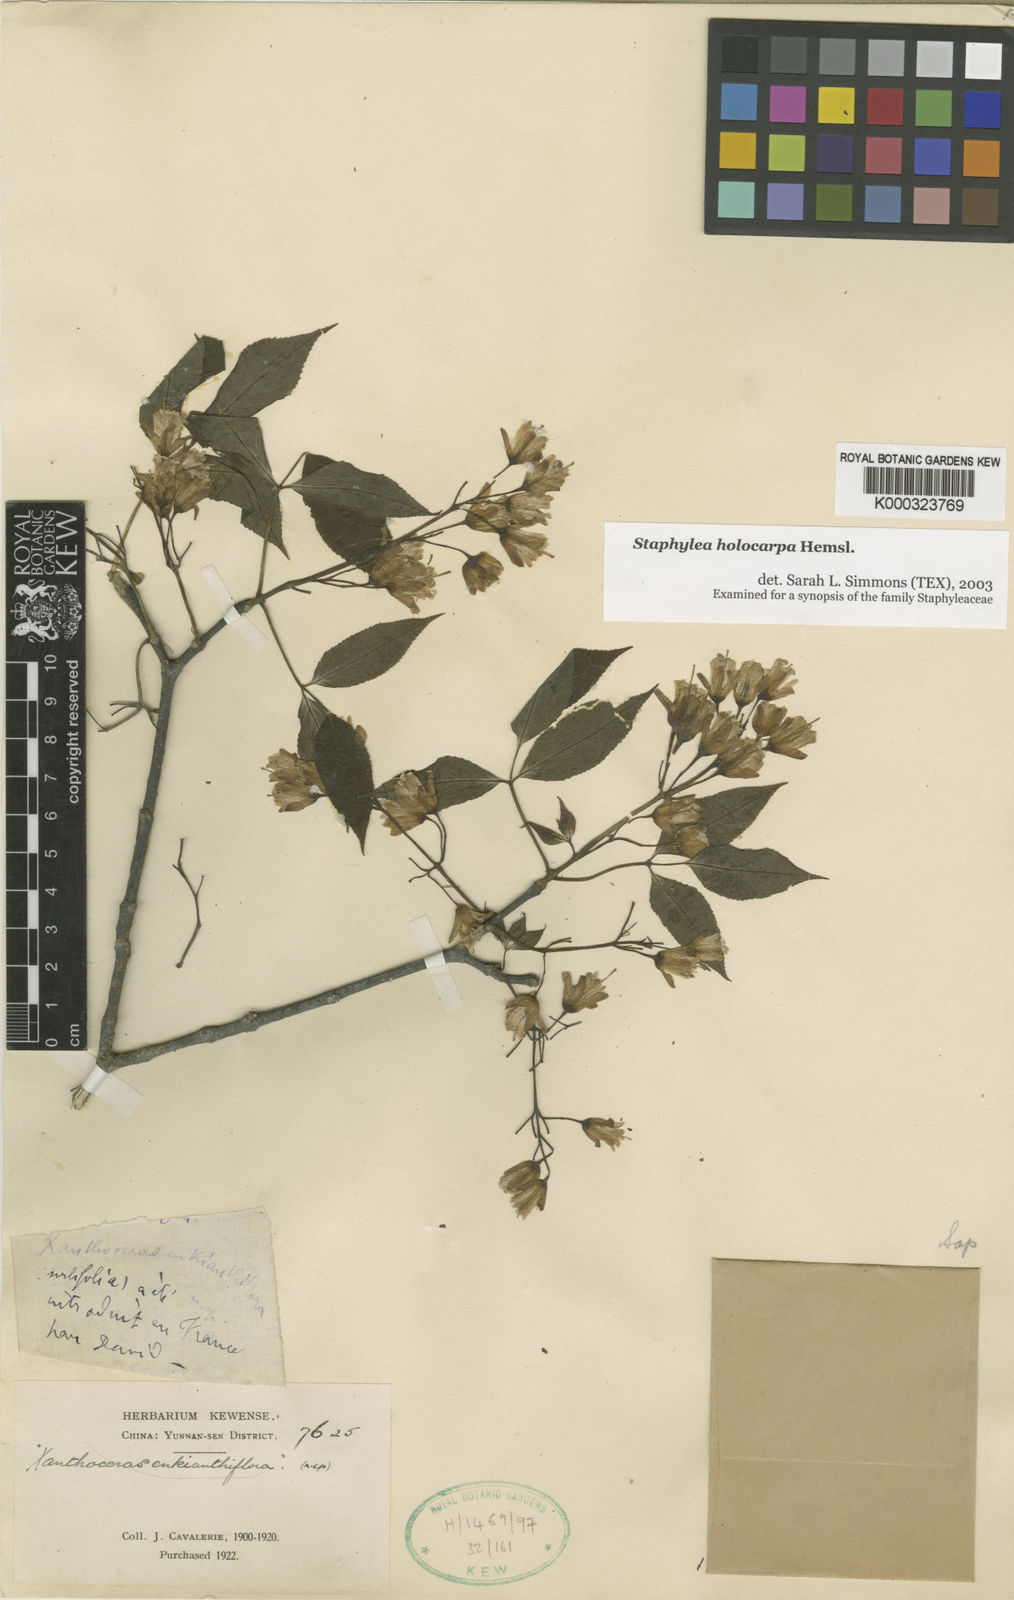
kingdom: Plantae
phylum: Tracheophyta
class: Magnoliopsida
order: Crossosomatales
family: Staphyleaceae
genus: Staphylea
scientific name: Staphylea holocarpa
